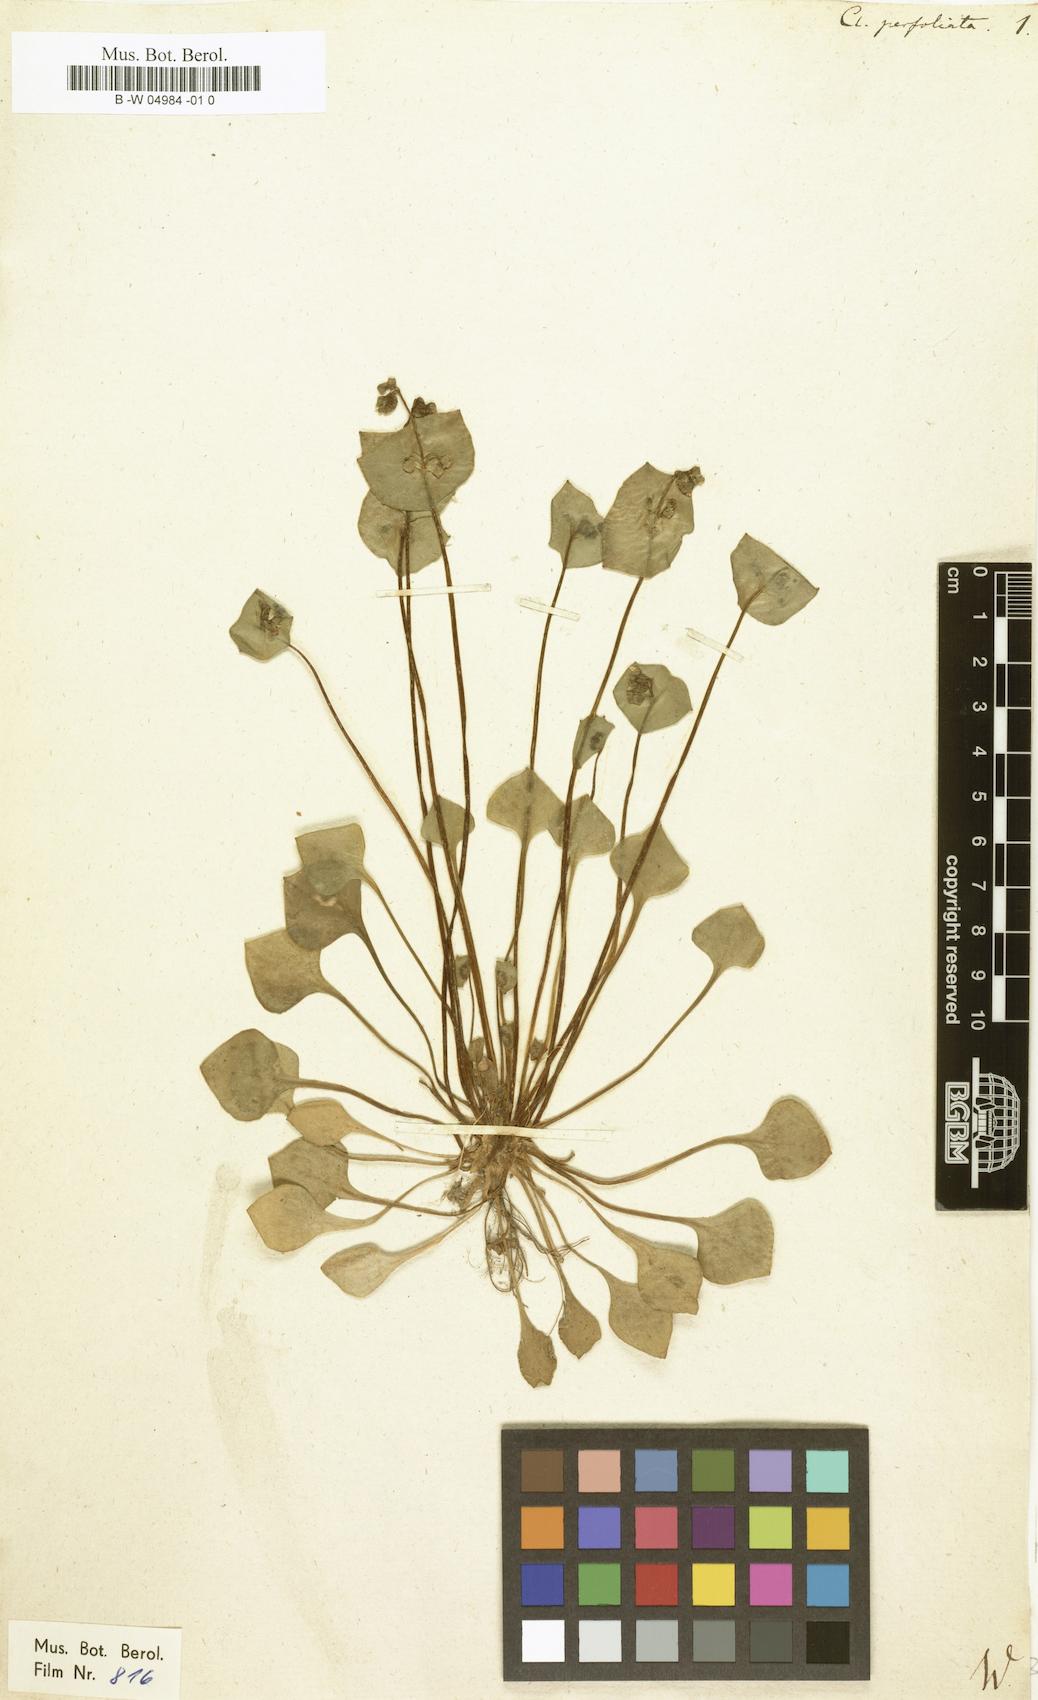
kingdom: Plantae
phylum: Tracheophyta
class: Magnoliopsida
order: Caryophyllales
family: Montiaceae
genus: Claytonia
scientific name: Claytonia perfoliata
